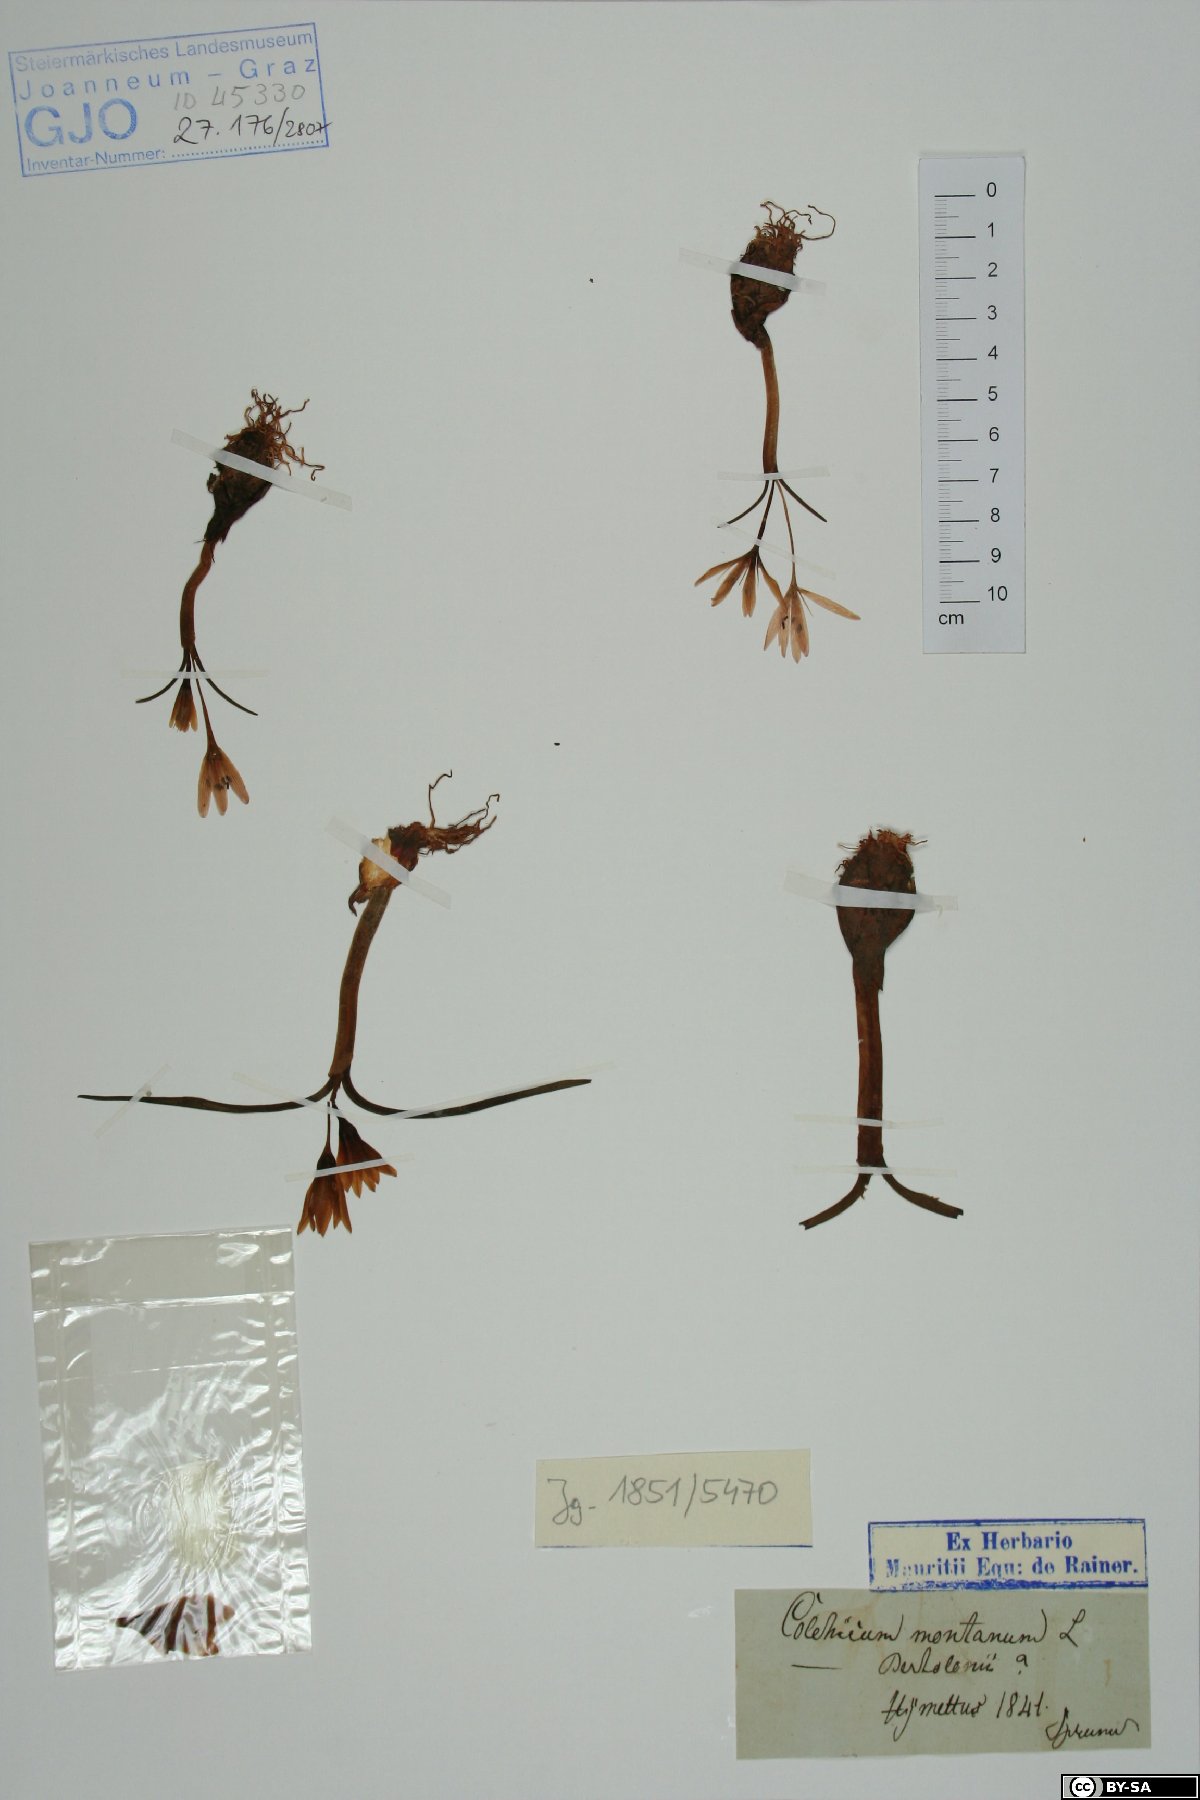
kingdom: Plantae
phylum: Tracheophyta
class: Liliopsida
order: Liliales
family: Colchicaceae
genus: Colchicum
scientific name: Colchicum montanum
